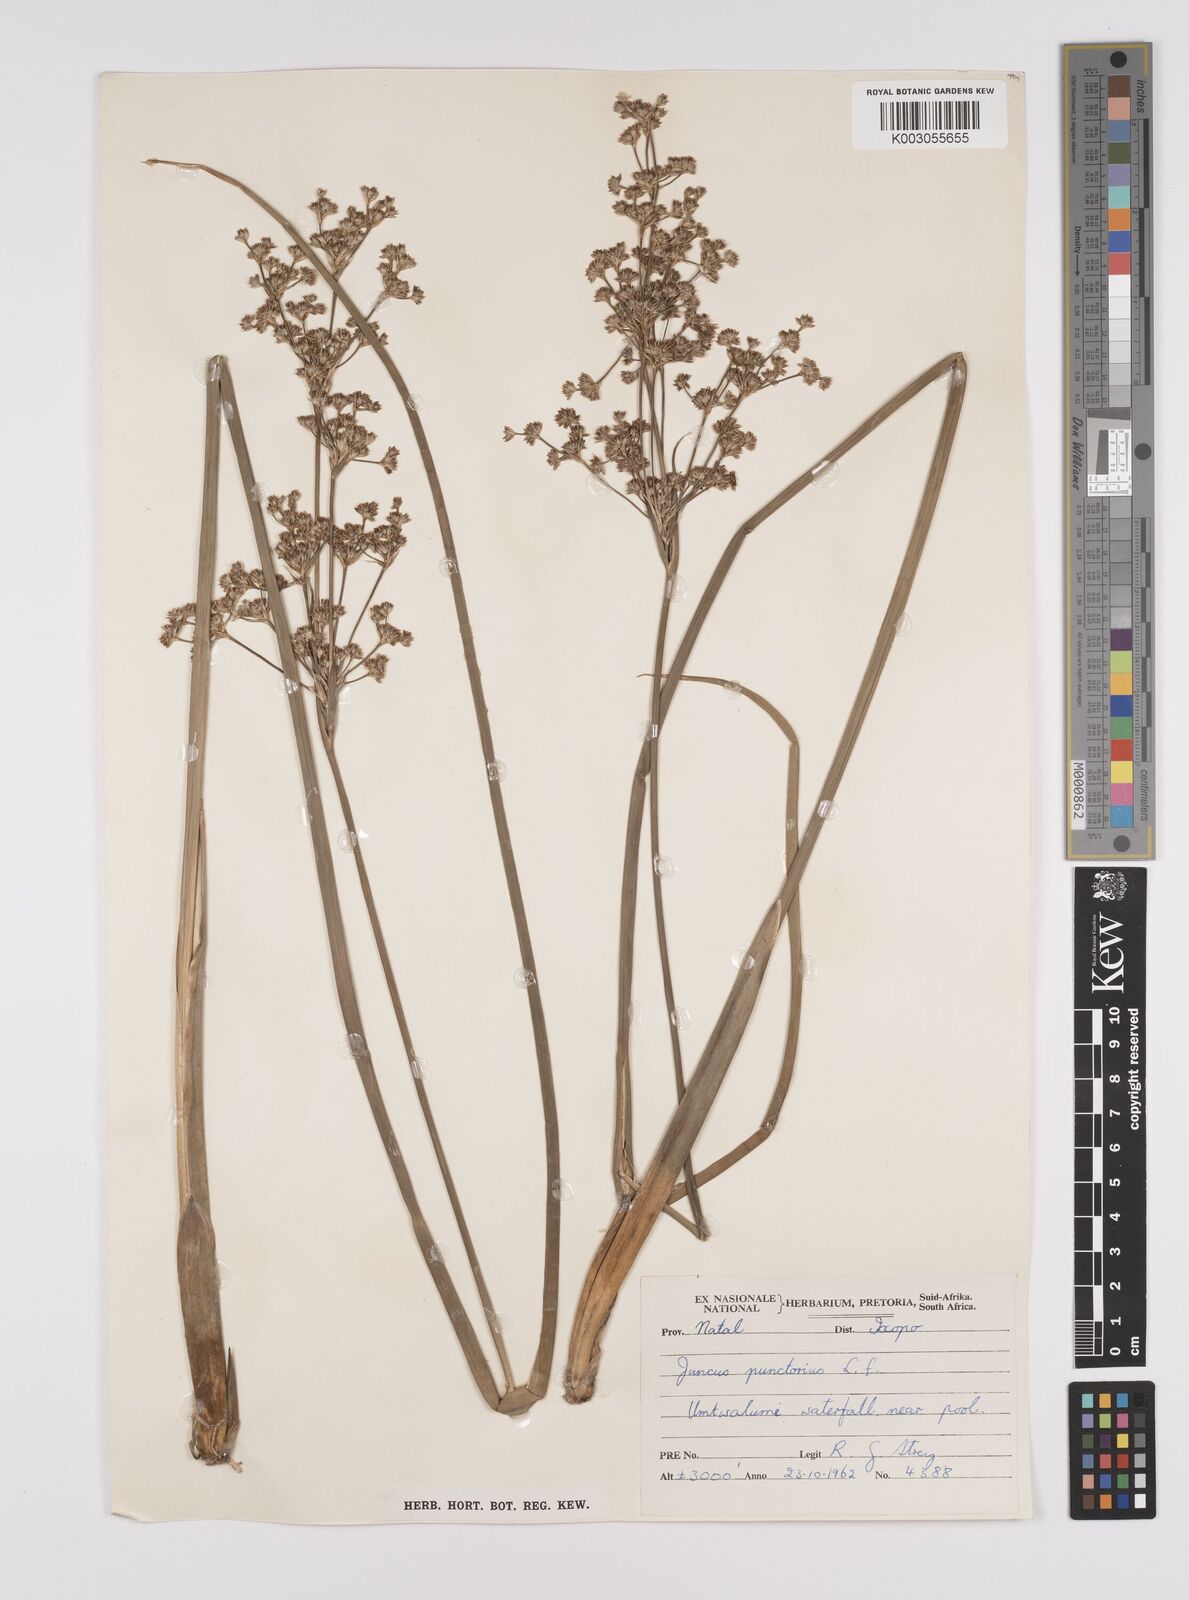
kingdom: Plantae
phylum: Tracheophyta
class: Liliopsida
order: Poales
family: Juncaceae
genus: Juncus
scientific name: Juncus punctorius
